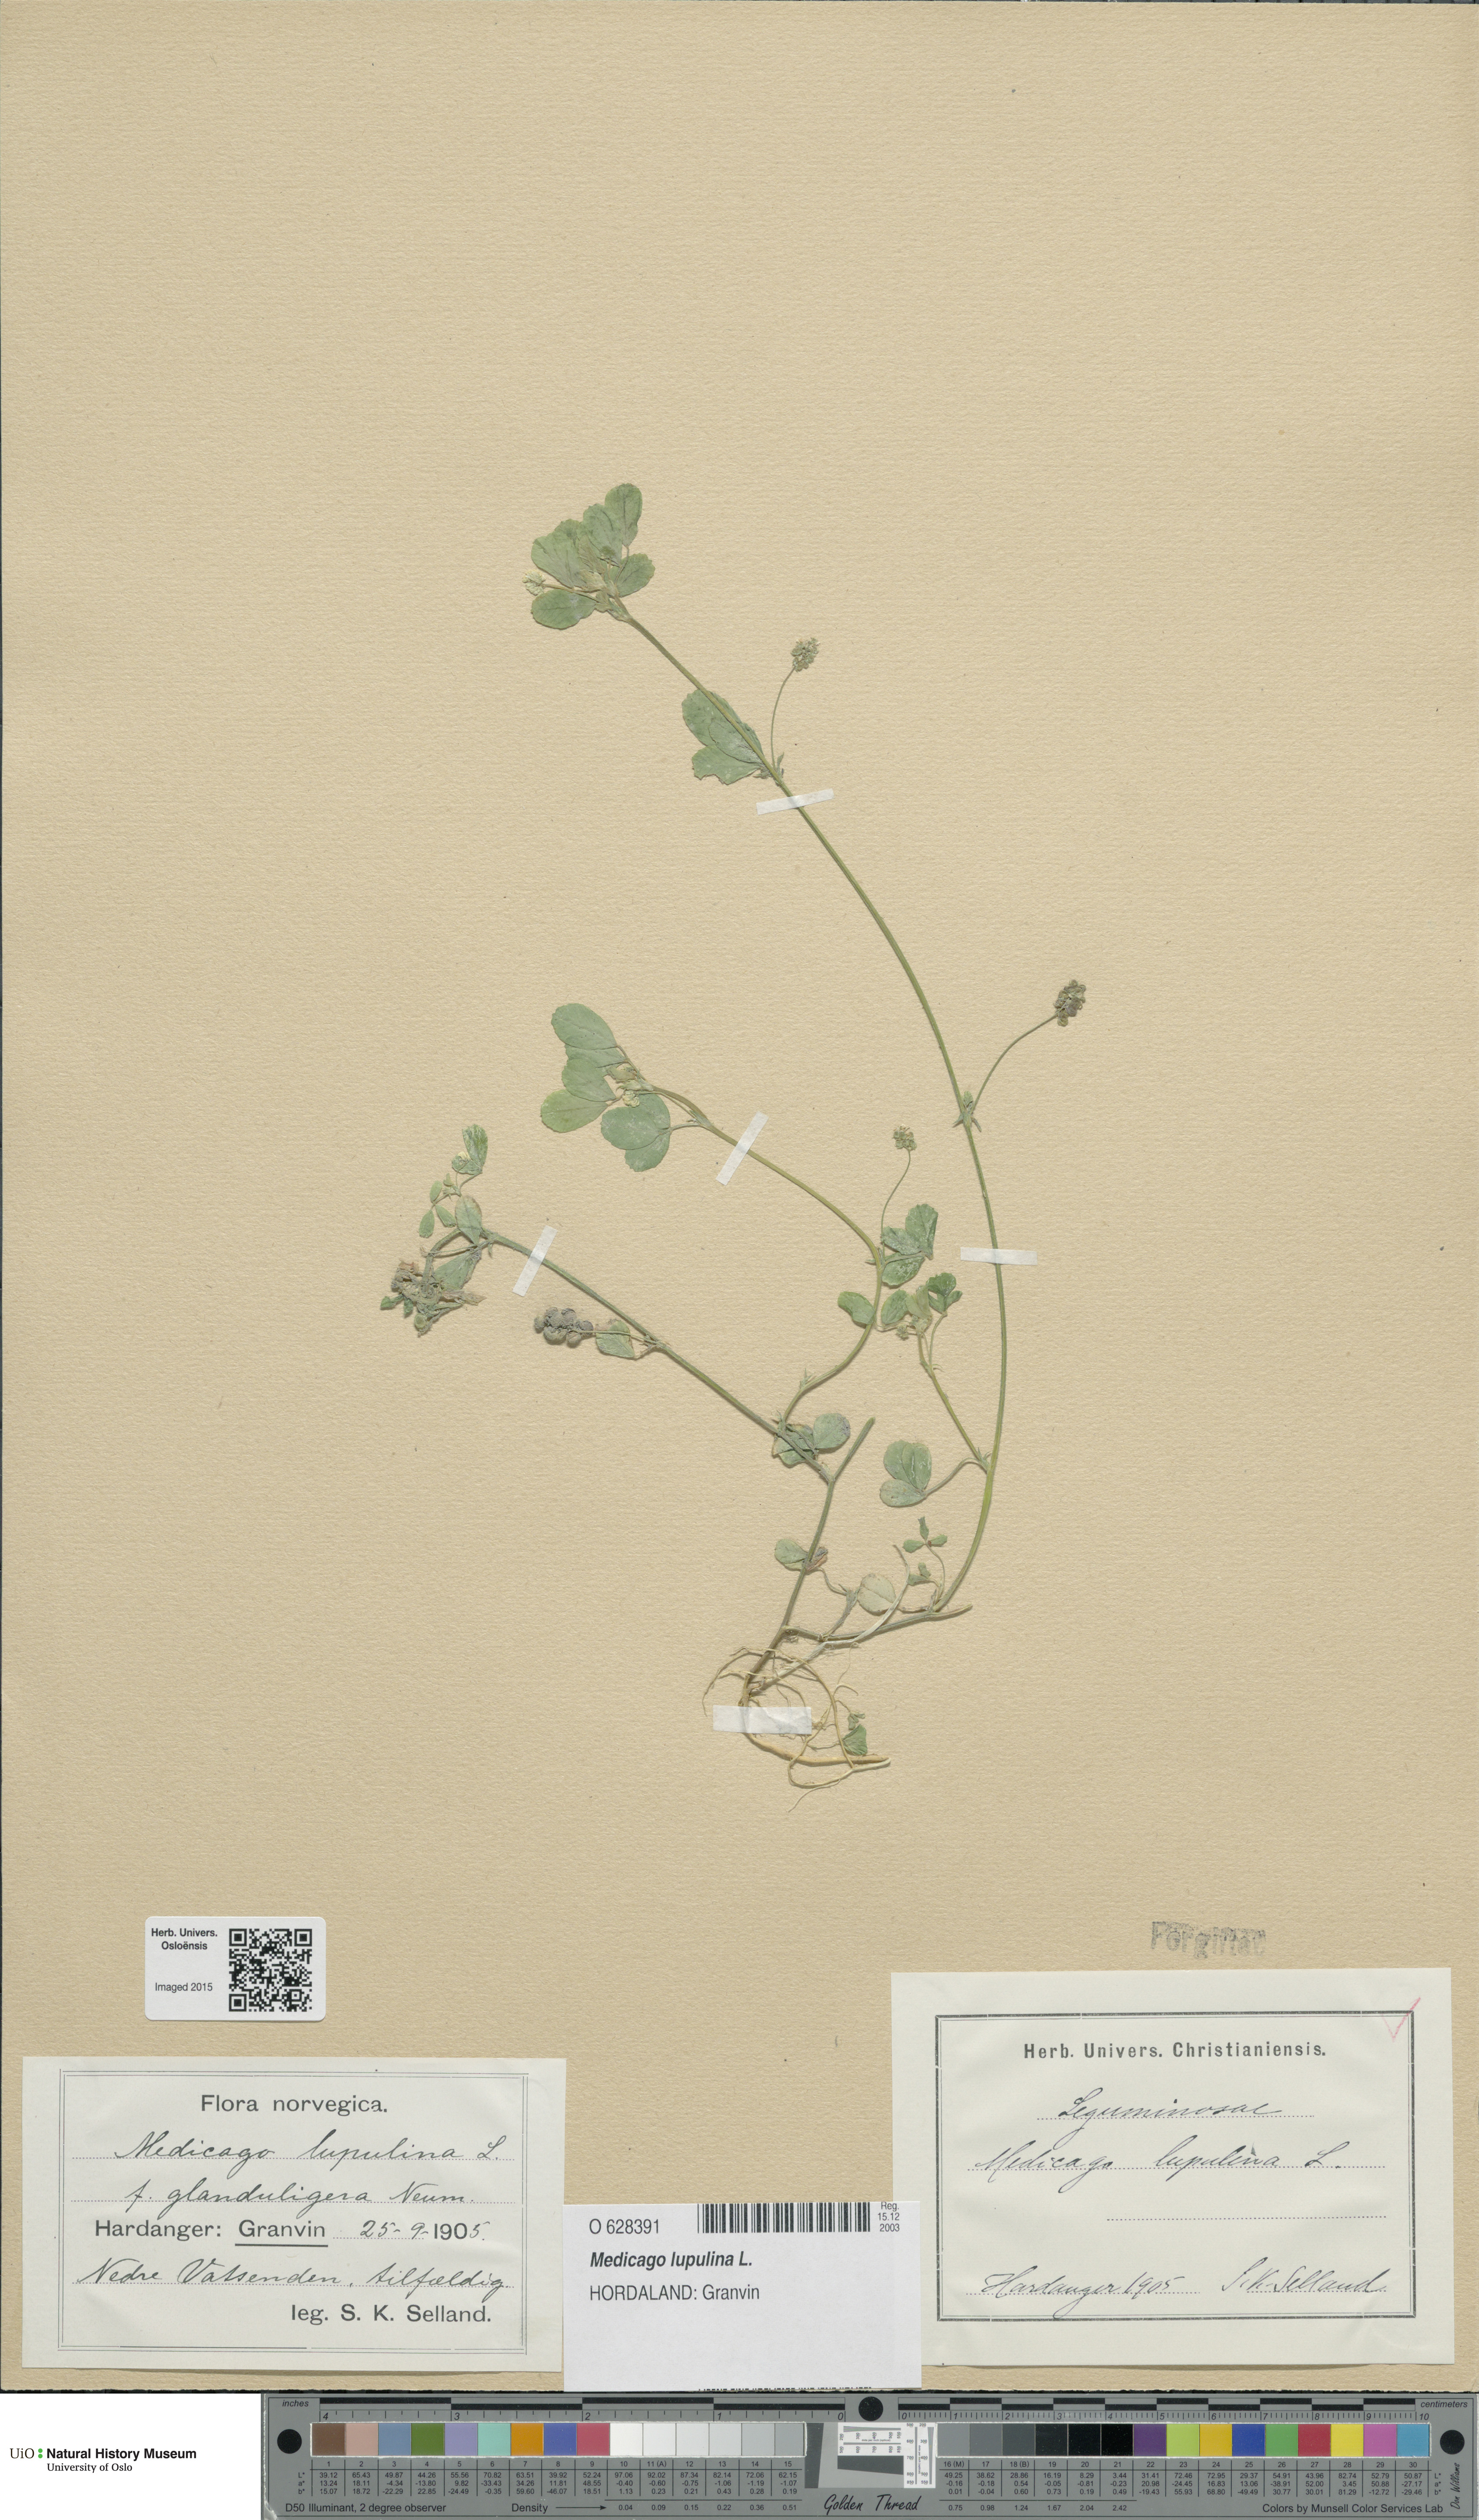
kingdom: Plantae
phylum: Tracheophyta
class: Magnoliopsida
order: Fabales
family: Fabaceae
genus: Medicago
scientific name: Medicago lupulina
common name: Black medick
